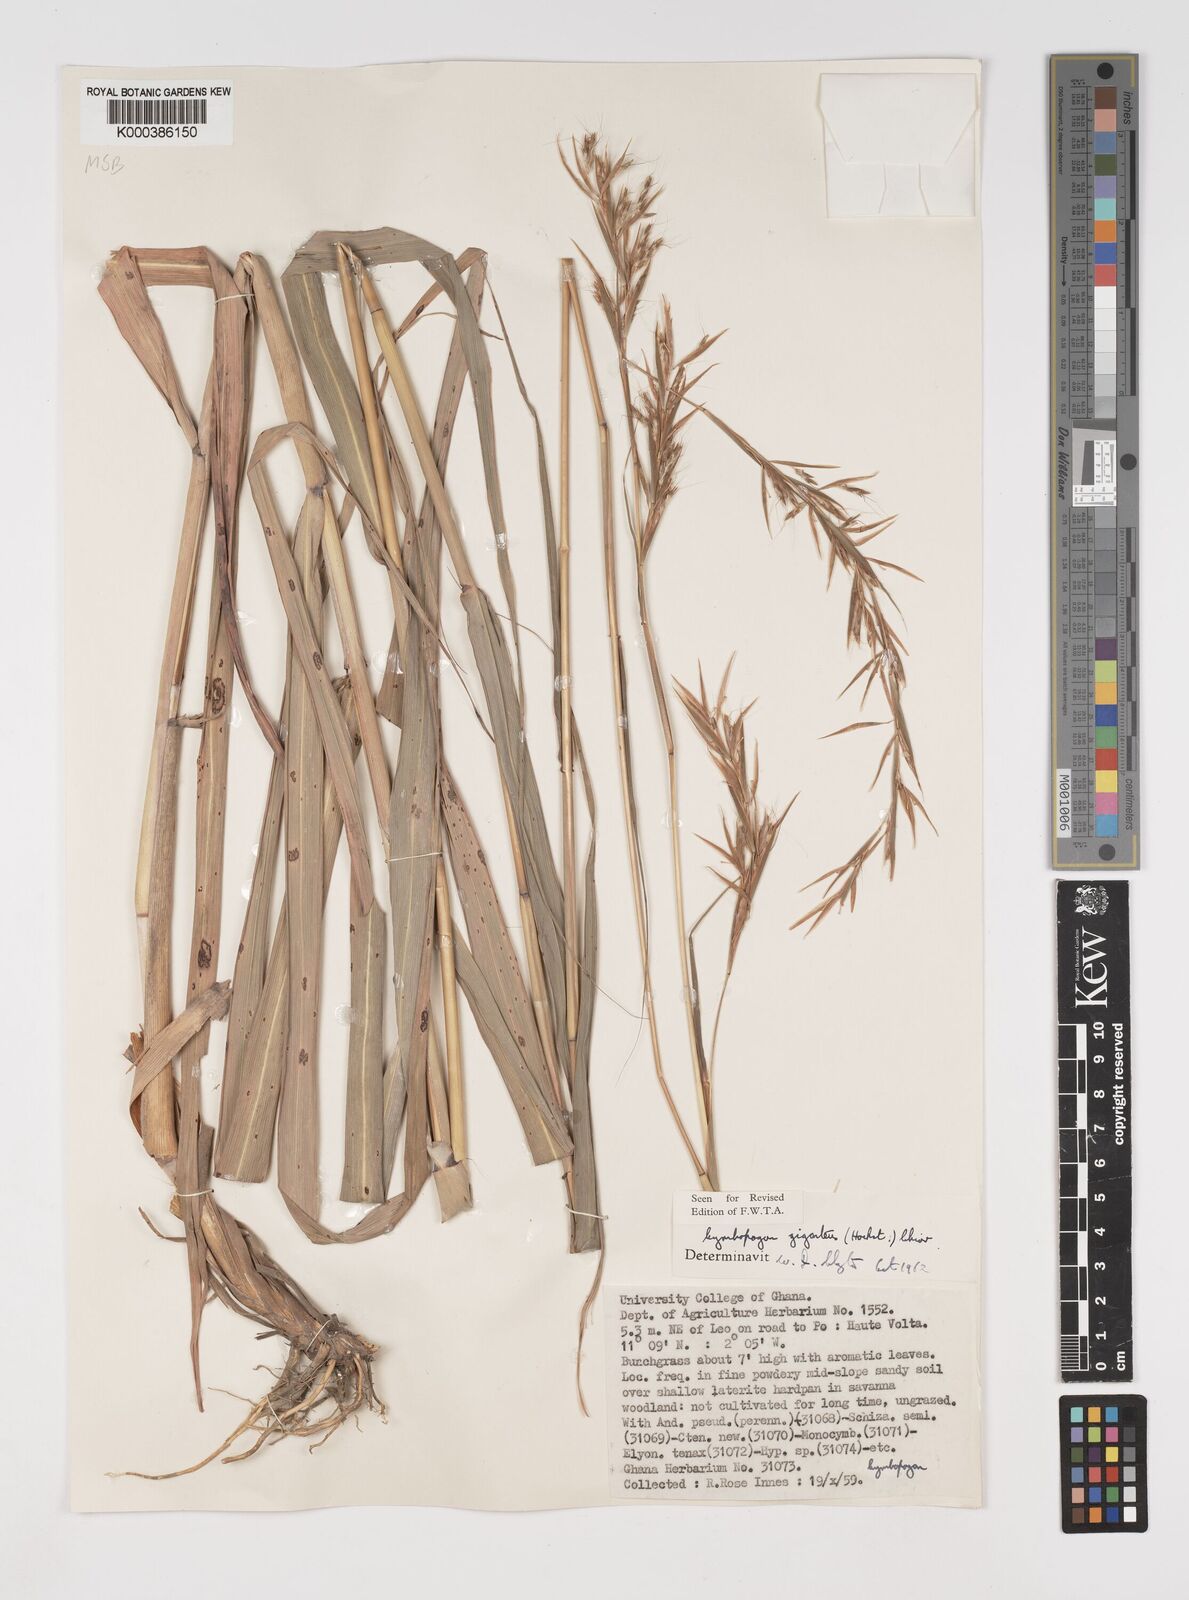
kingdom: Plantae
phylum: Tracheophyta
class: Liliopsida
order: Poales
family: Poaceae
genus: Cymbopogon
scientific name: Cymbopogon giganteus
